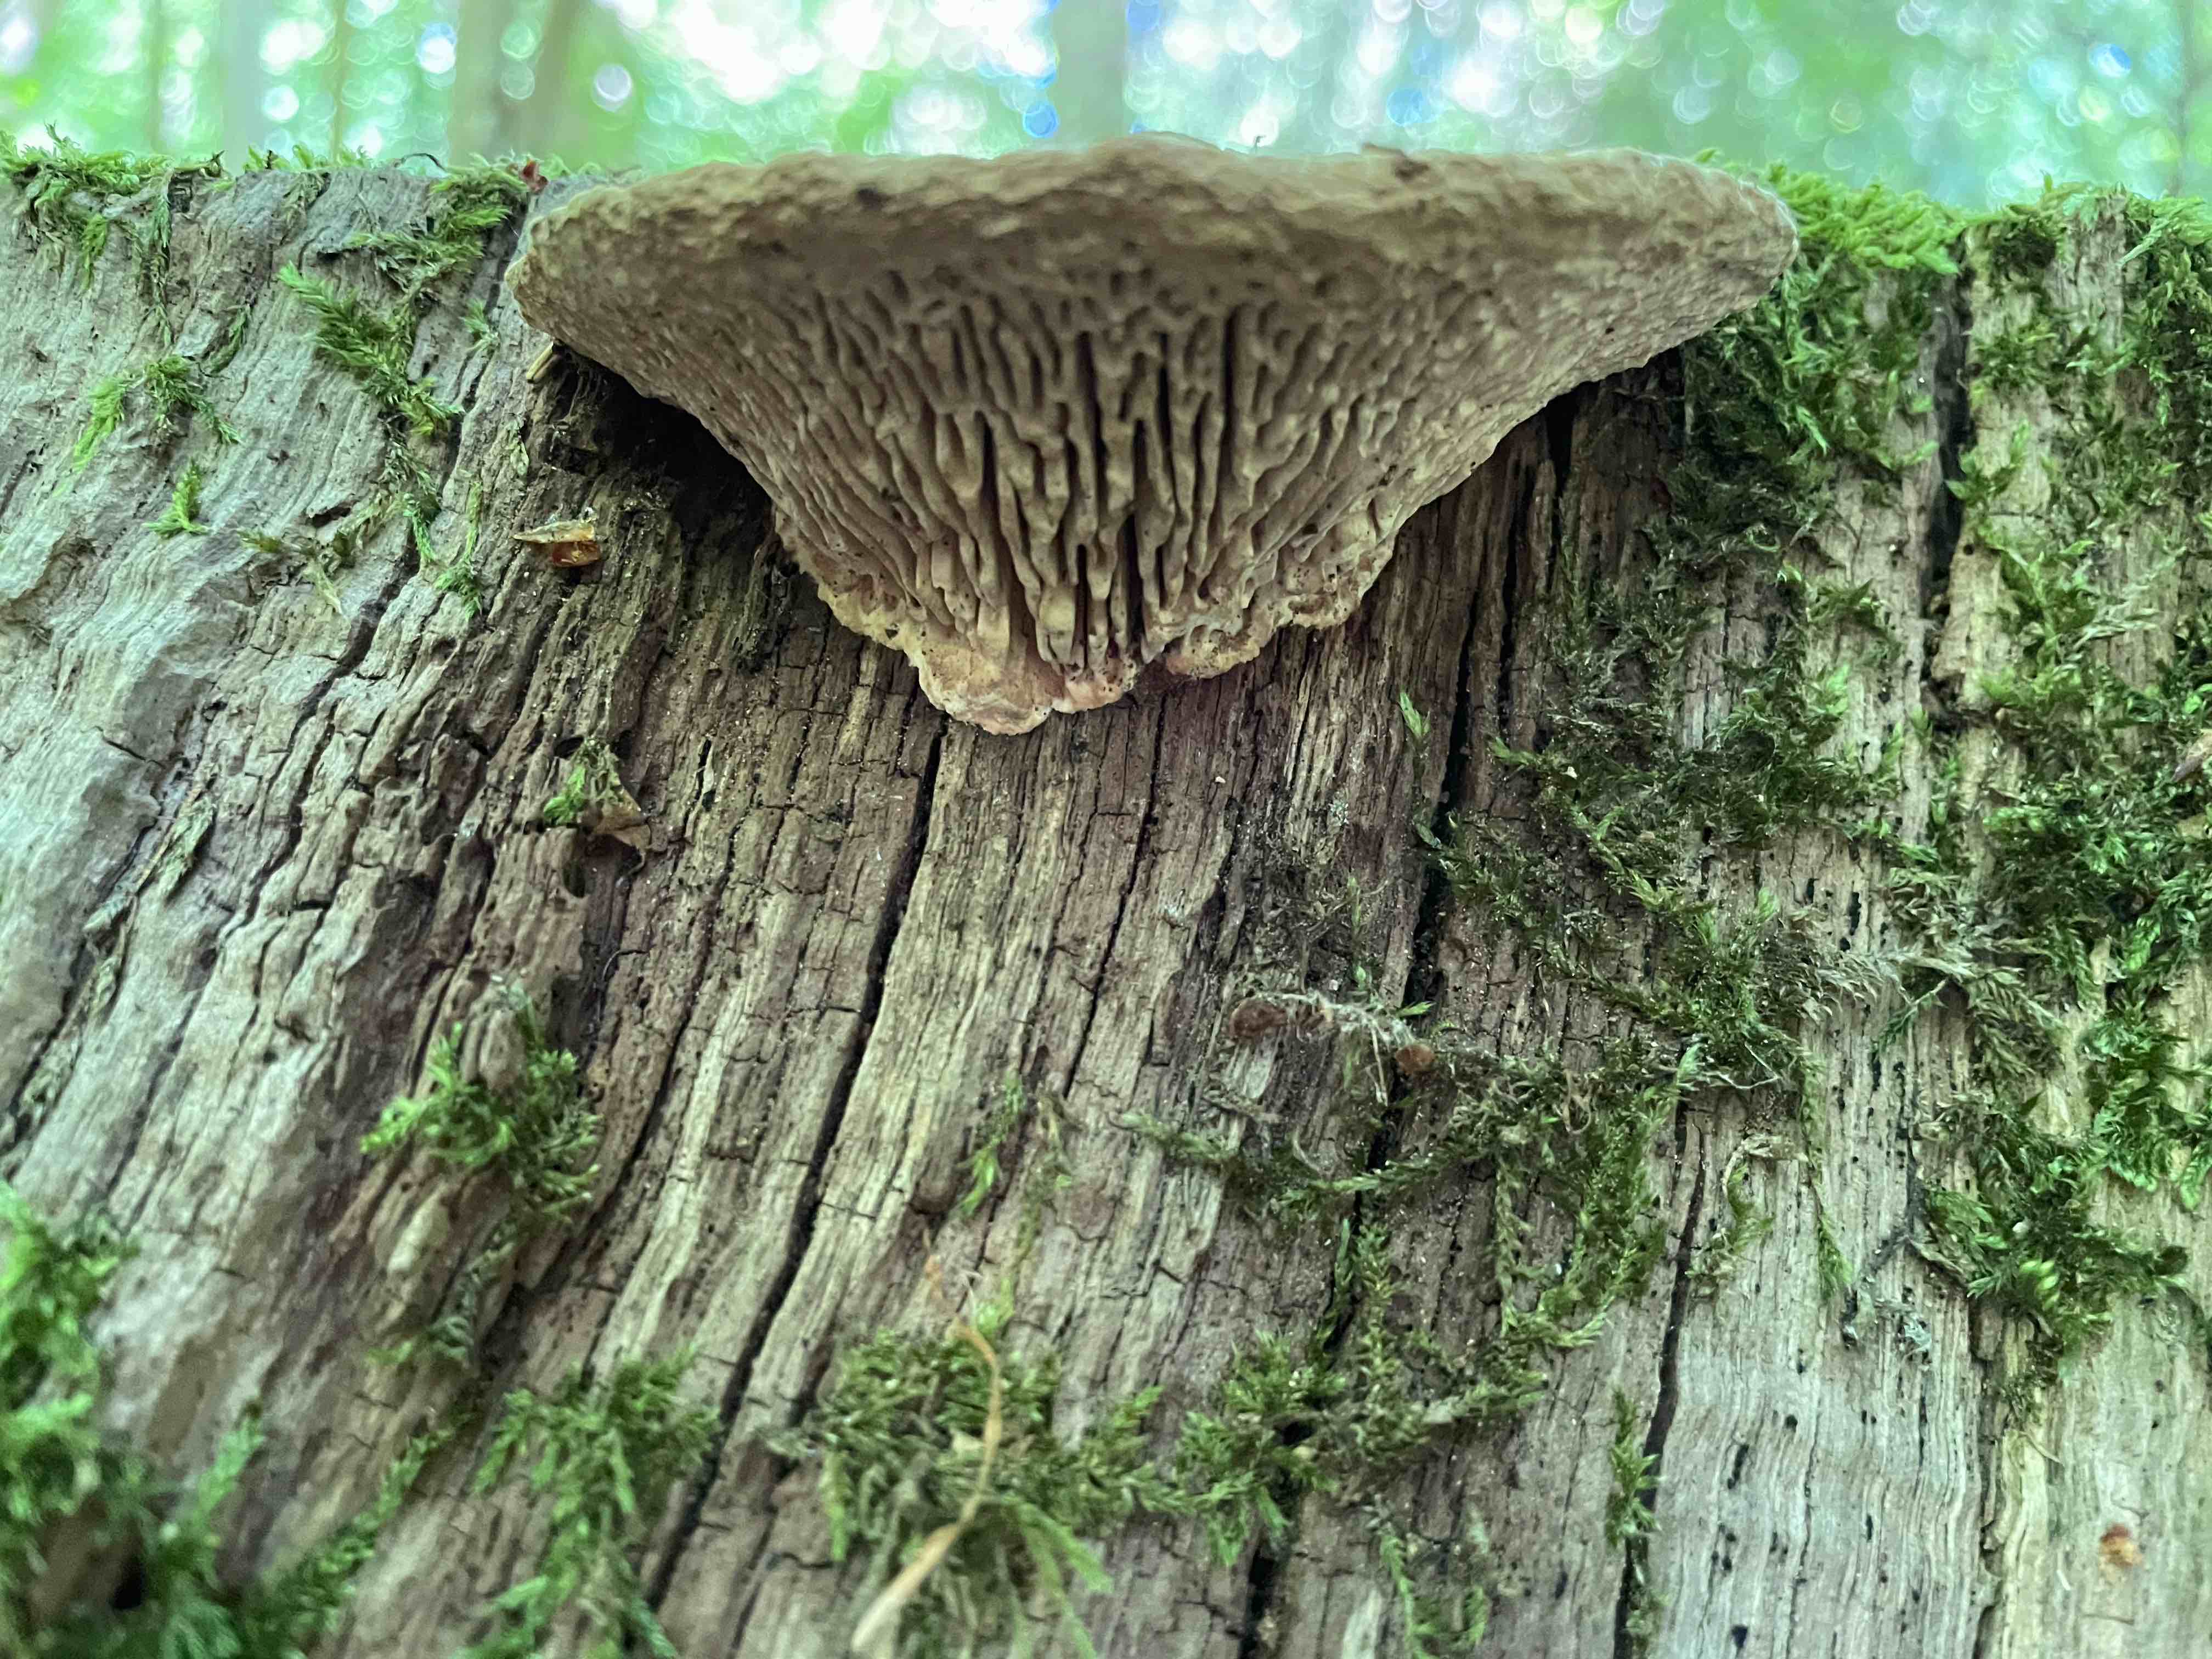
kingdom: Fungi
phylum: Basidiomycota
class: Agaricomycetes
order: Polyporales
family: Fomitopsidaceae
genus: Daedalea
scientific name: Daedalea quercina
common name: ege-labyrintsvamp
